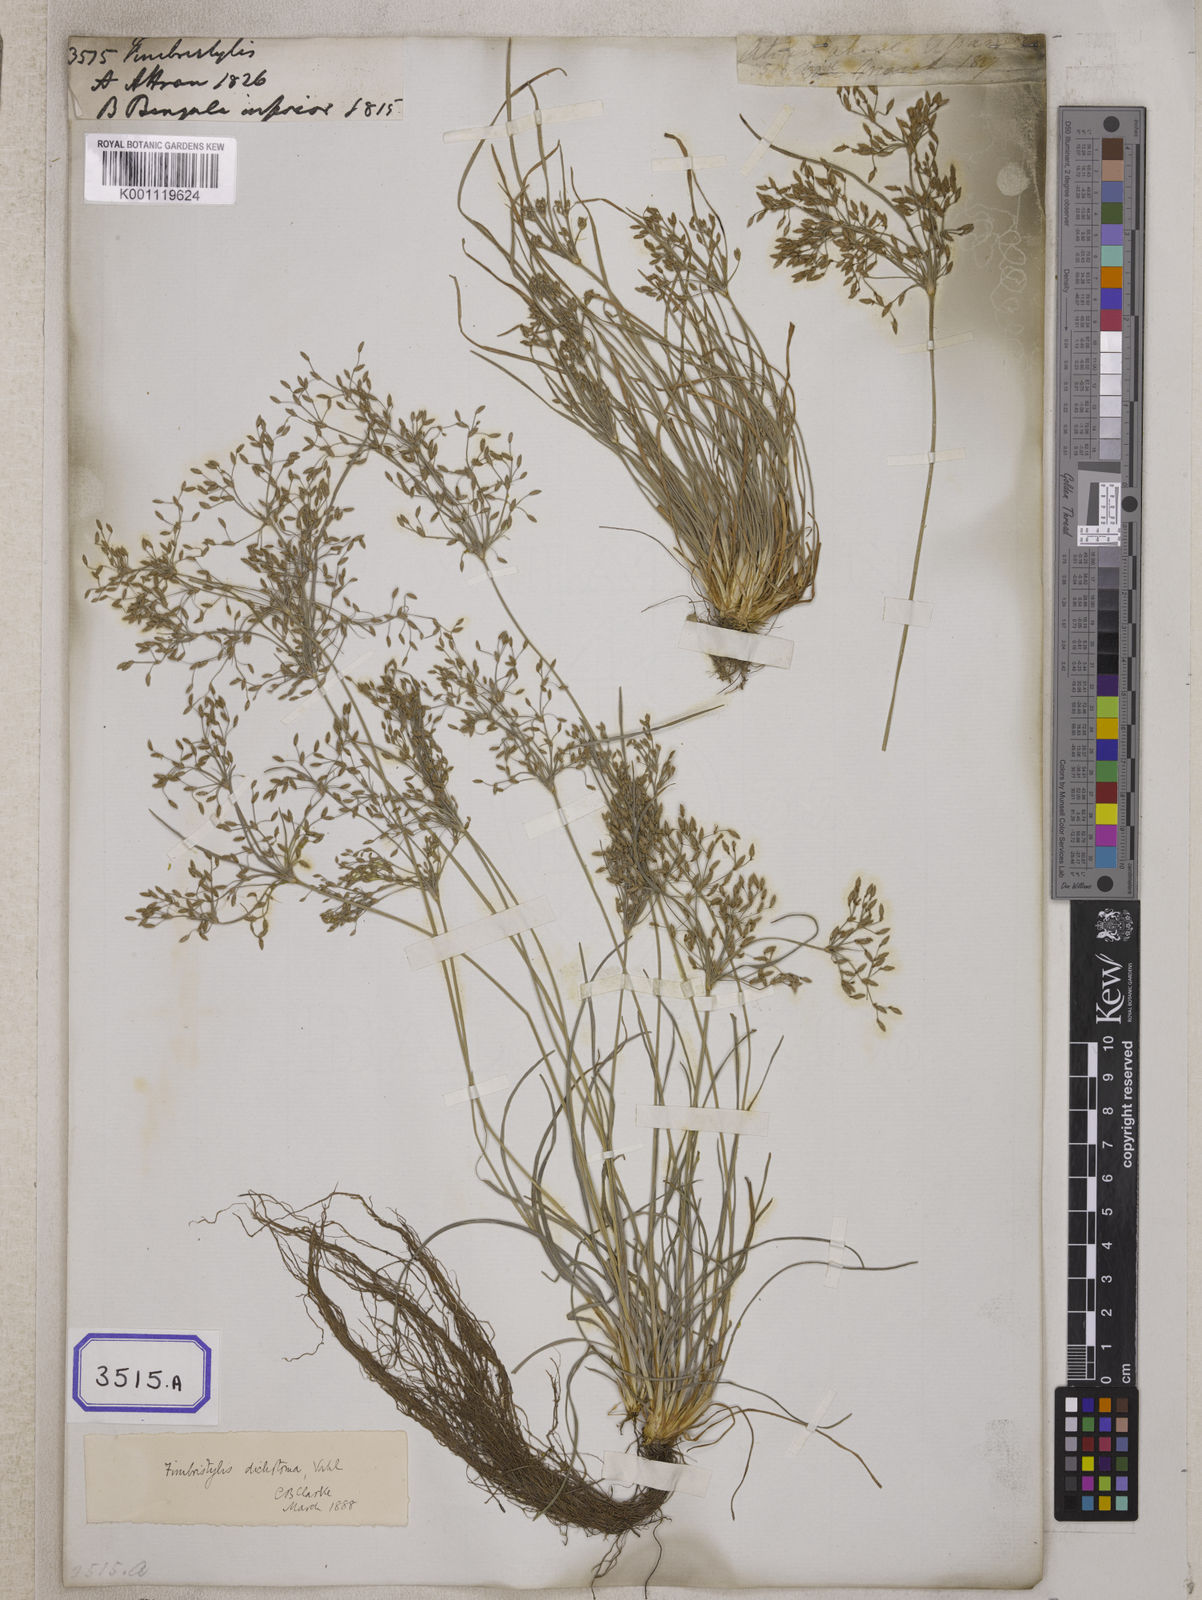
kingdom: Plantae
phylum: Tracheophyta
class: Liliopsida
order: Poales
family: Cyperaceae
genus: Fimbristylis
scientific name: Fimbristylis
